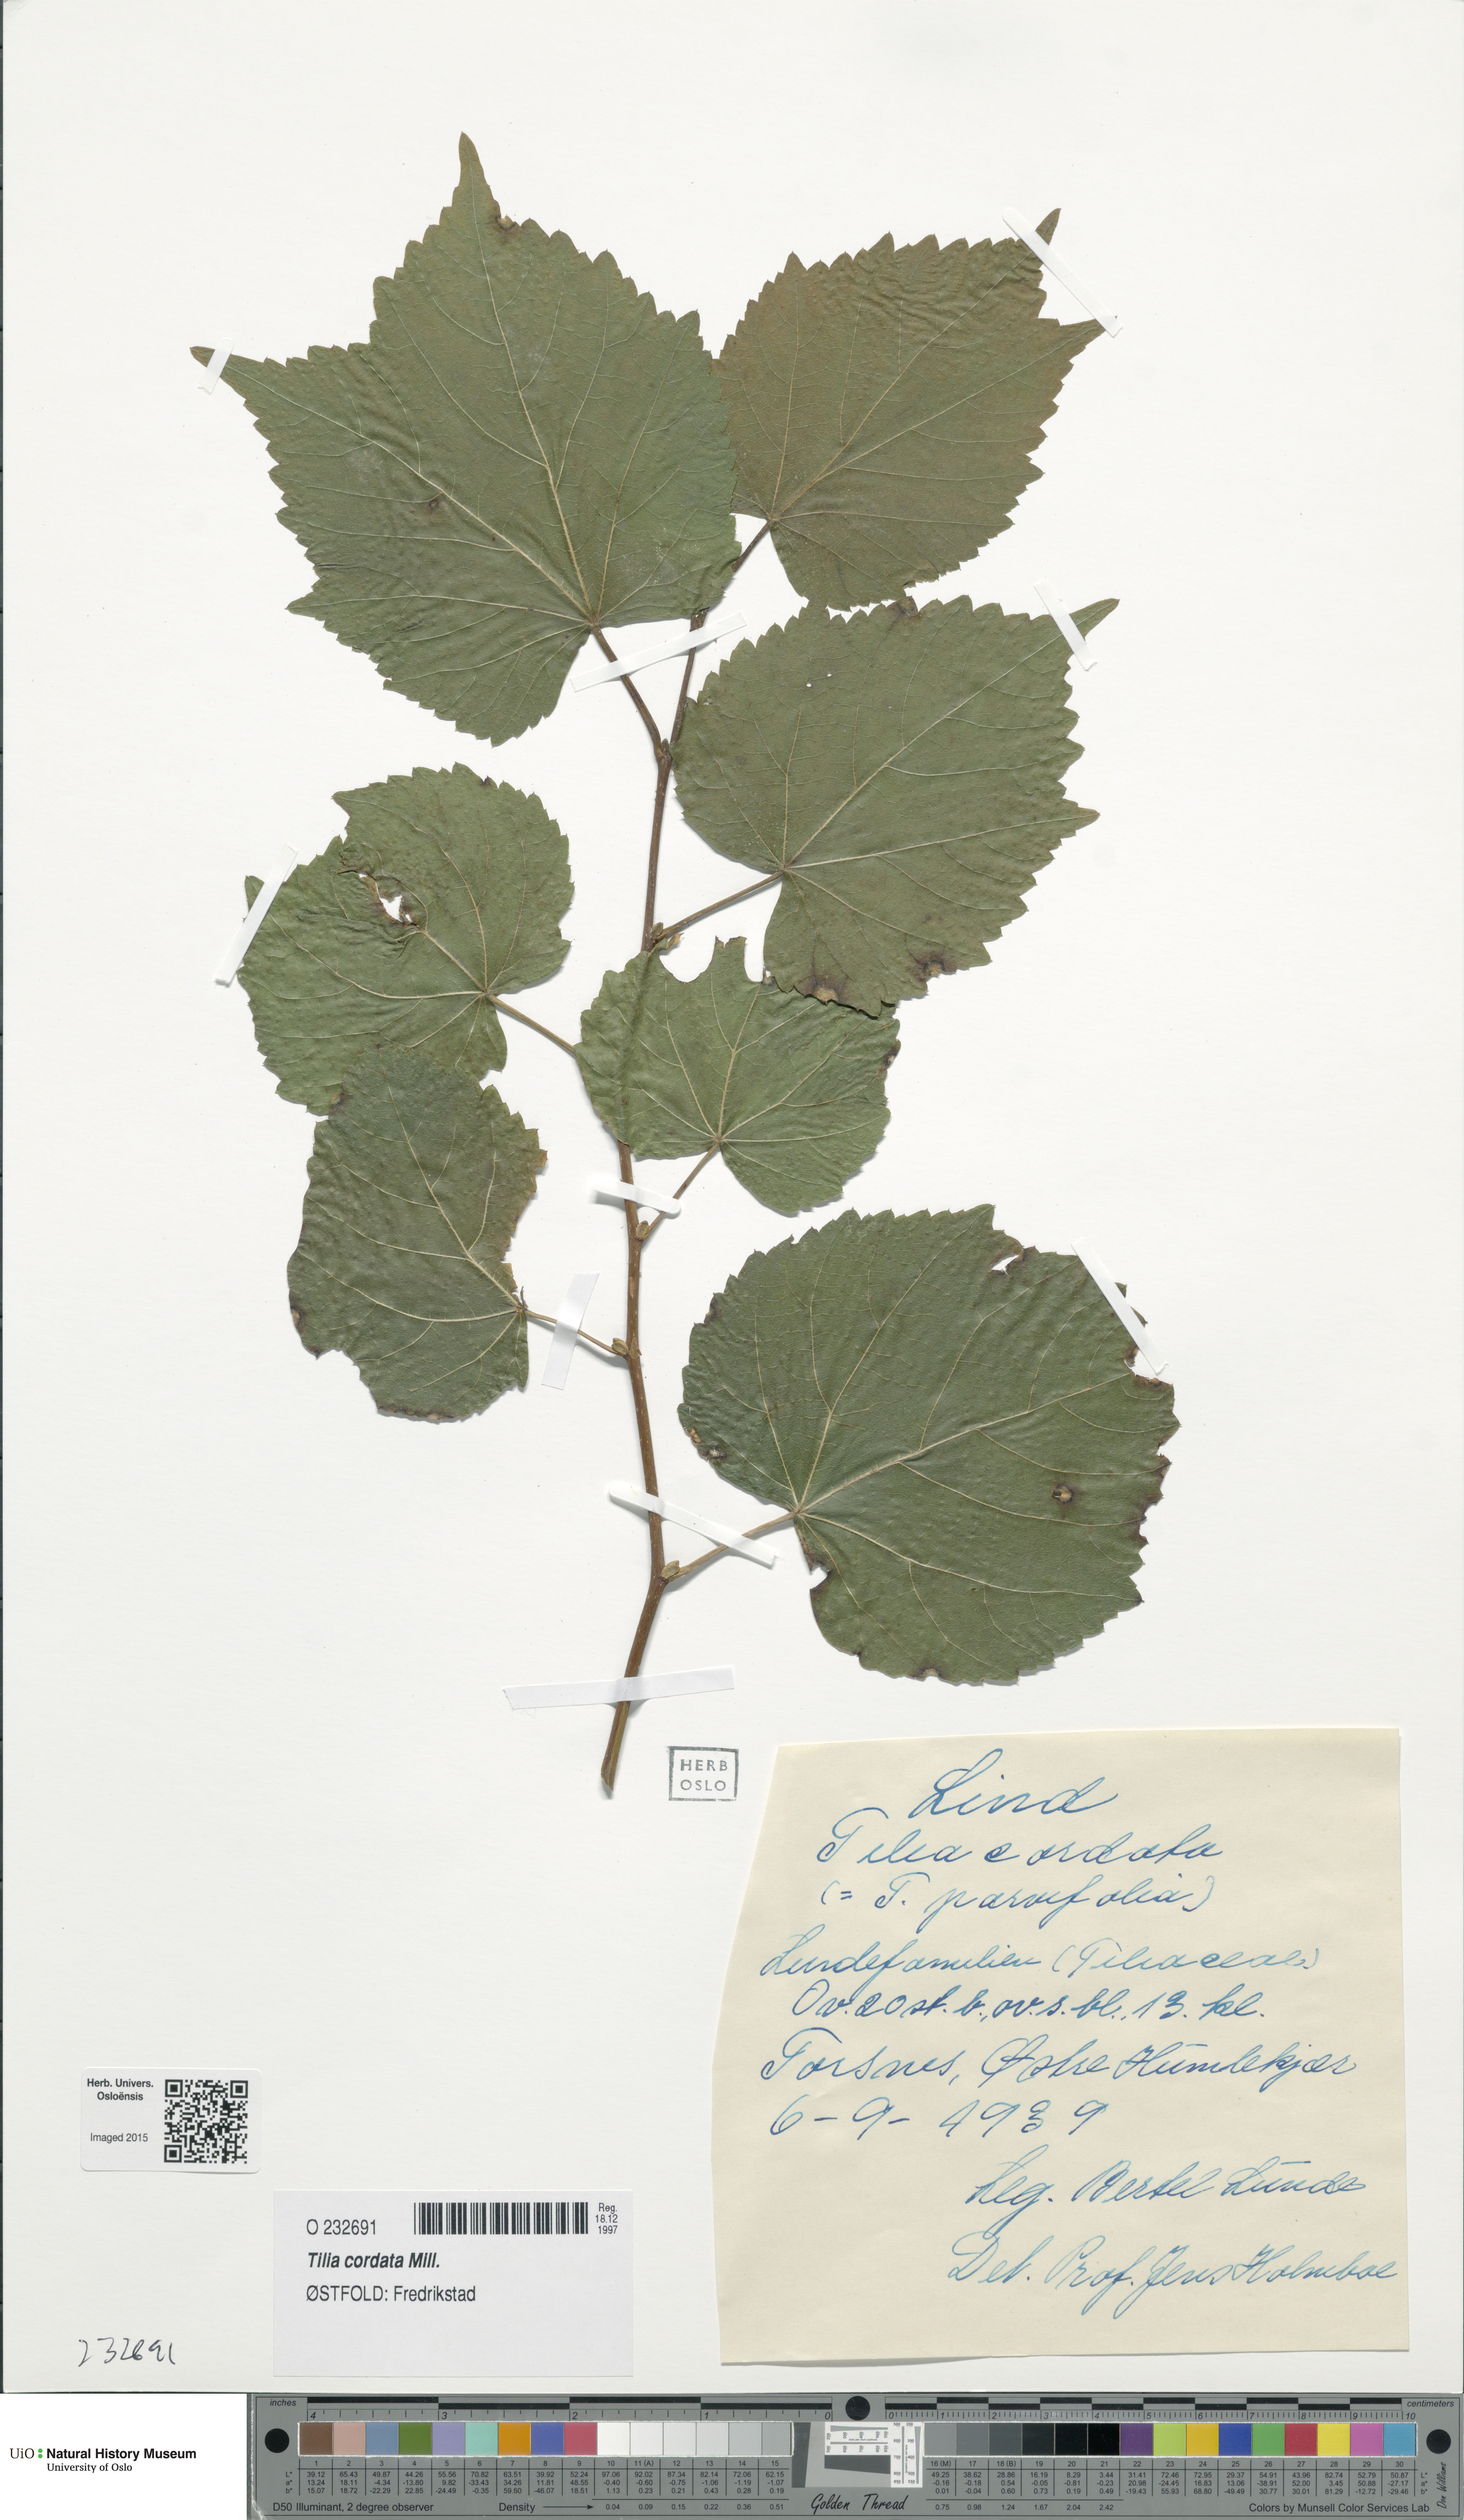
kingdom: Plantae
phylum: Tracheophyta
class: Magnoliopsida
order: Malvales
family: Malvaceae
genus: Tilia
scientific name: Tilia cordata
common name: Small-leaved lime
